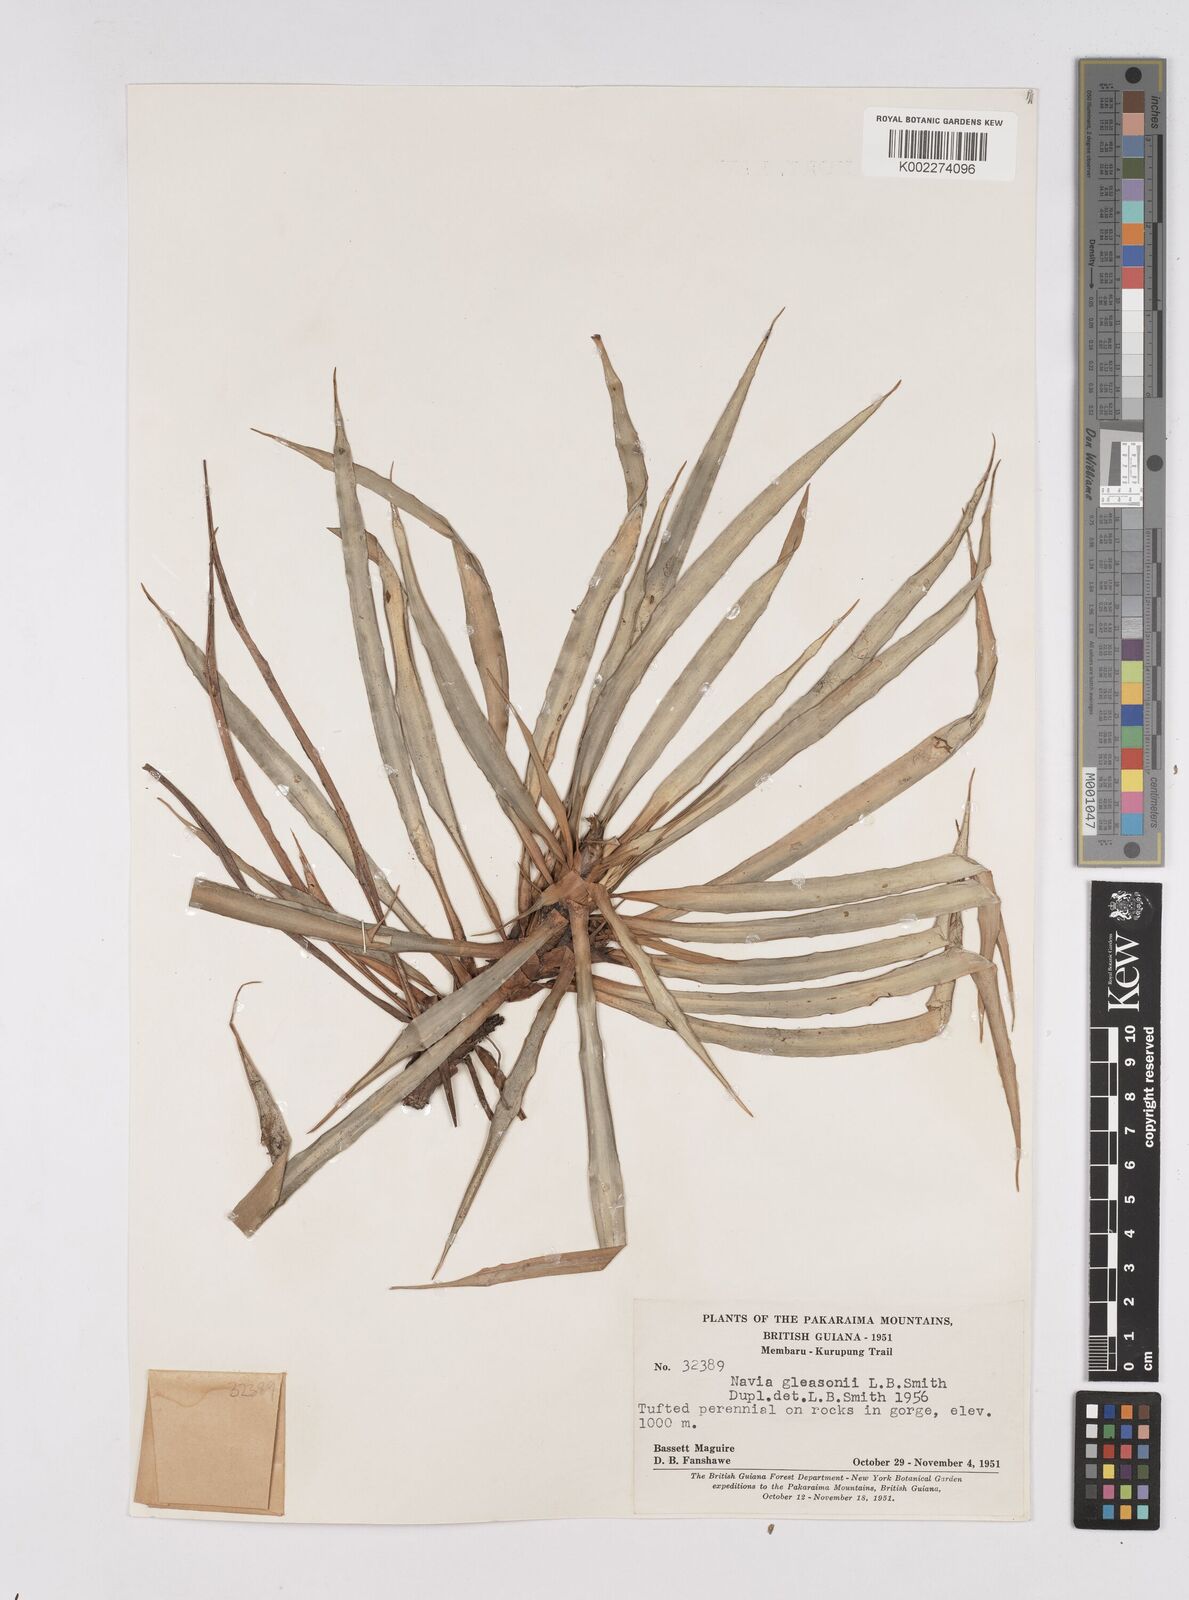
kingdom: Plantae
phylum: Tracheophyta
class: Liliopsida
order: Poales
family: Bromeliaceae
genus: Navia
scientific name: Navia gleasonii
